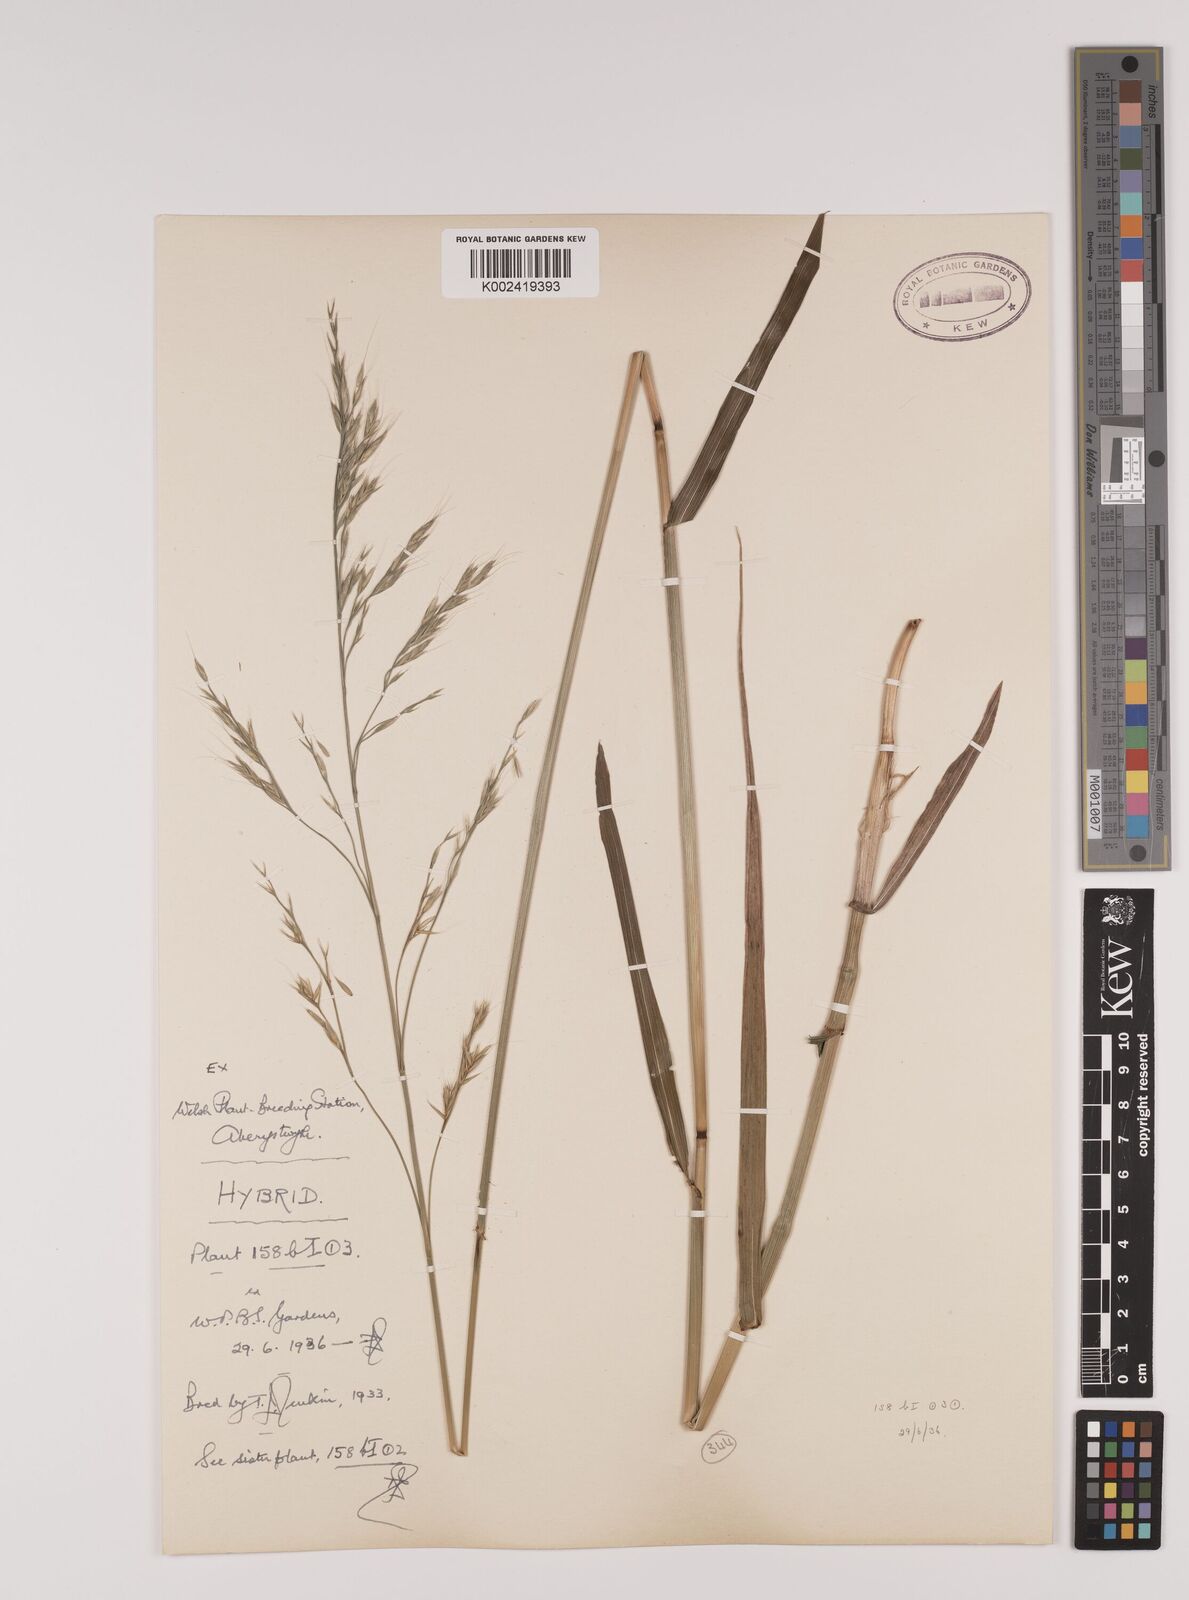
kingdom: Plantae
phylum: Tracheophyta
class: Liliopsida
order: Poales
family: Poaceae
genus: Lolium
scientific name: Lolium giganteum
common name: Giant fescue
